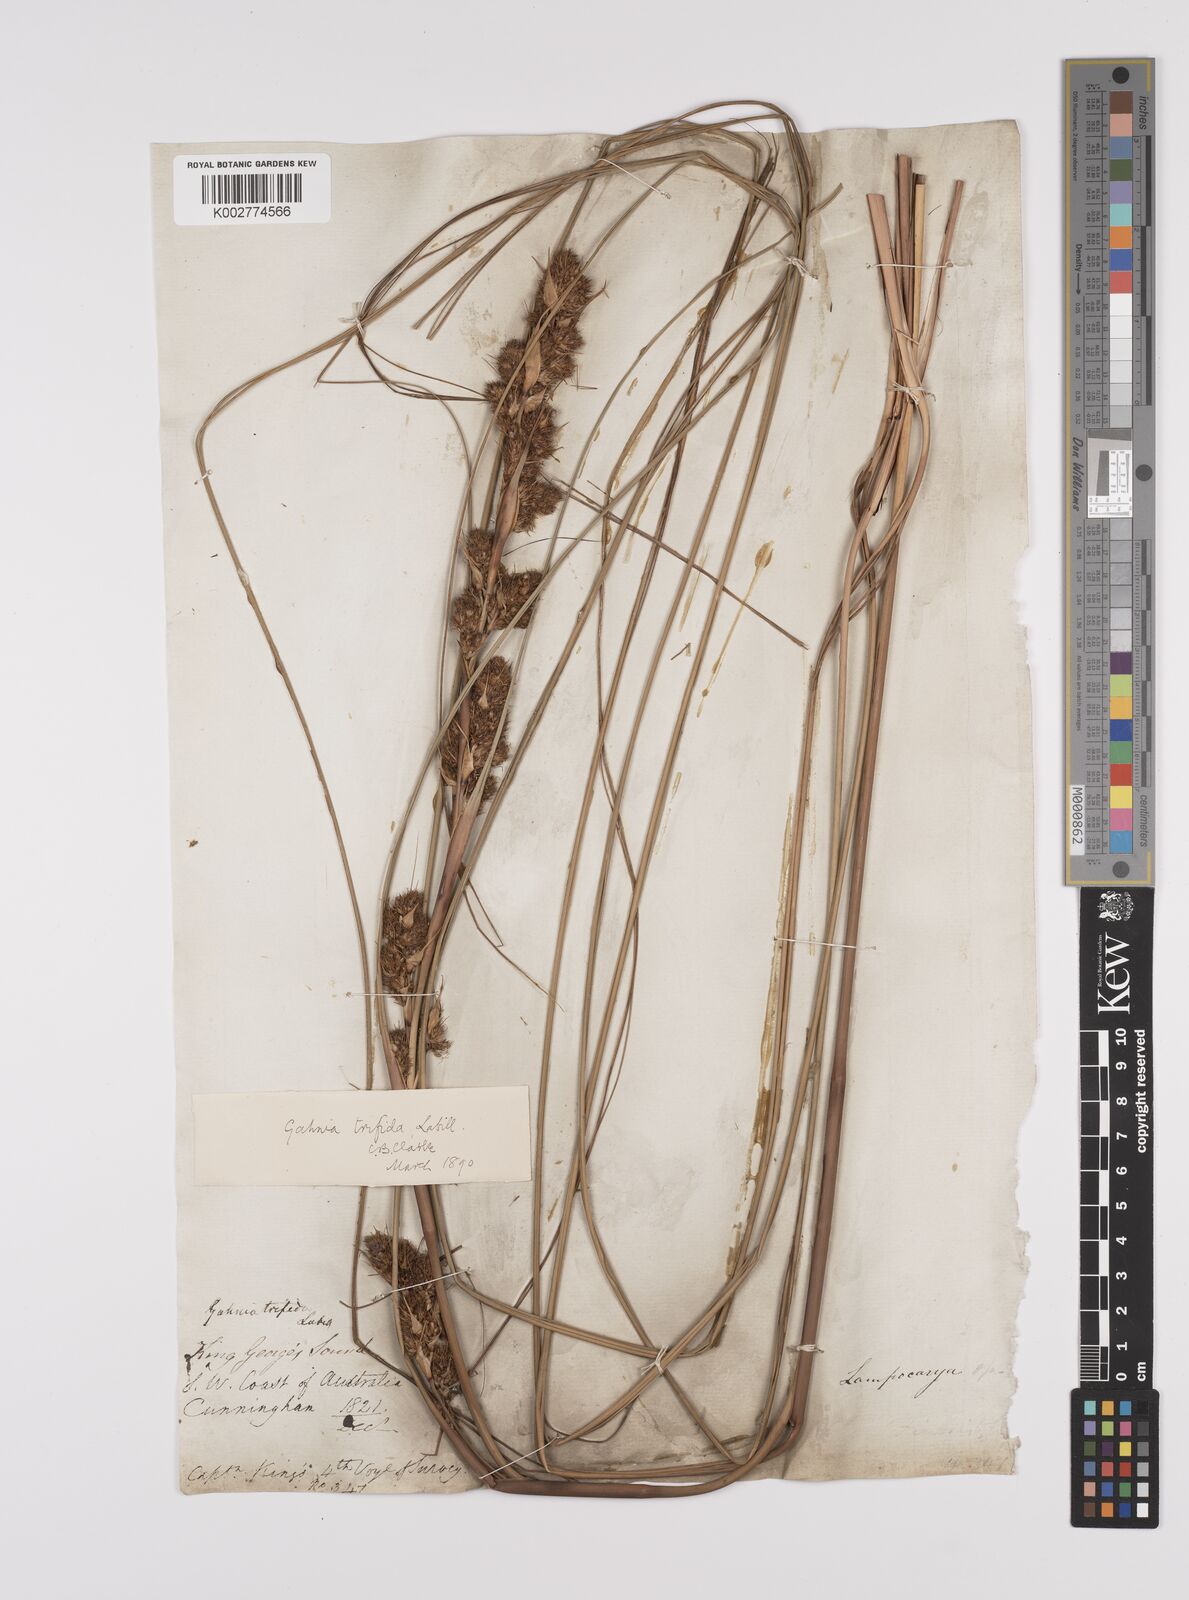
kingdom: Plantae
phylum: Tracheophyta
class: Liliopsida
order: Poales
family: Cyperaceae
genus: Gahnia
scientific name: Gahnia trifida
